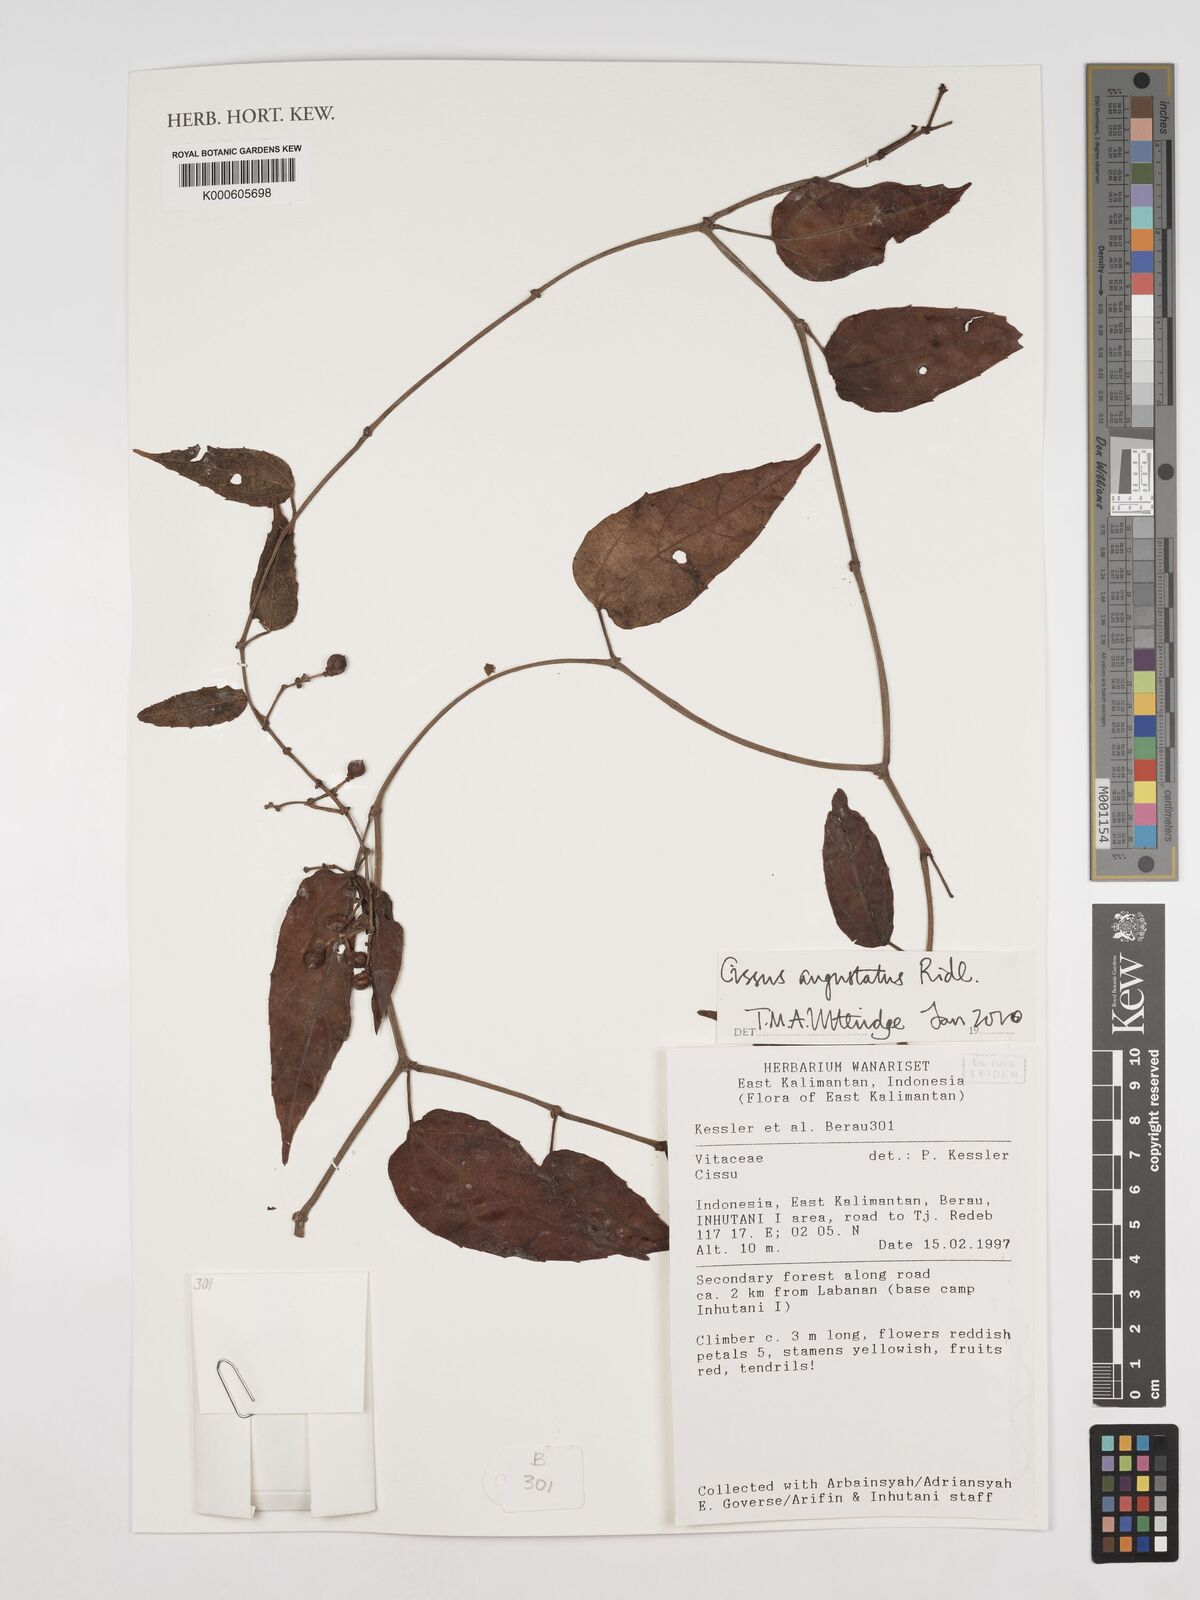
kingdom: Plantae
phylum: Tracheophyta
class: Magnoliopsida
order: Vitales
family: Vitaceae
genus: Cissus
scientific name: Cissus angustata
